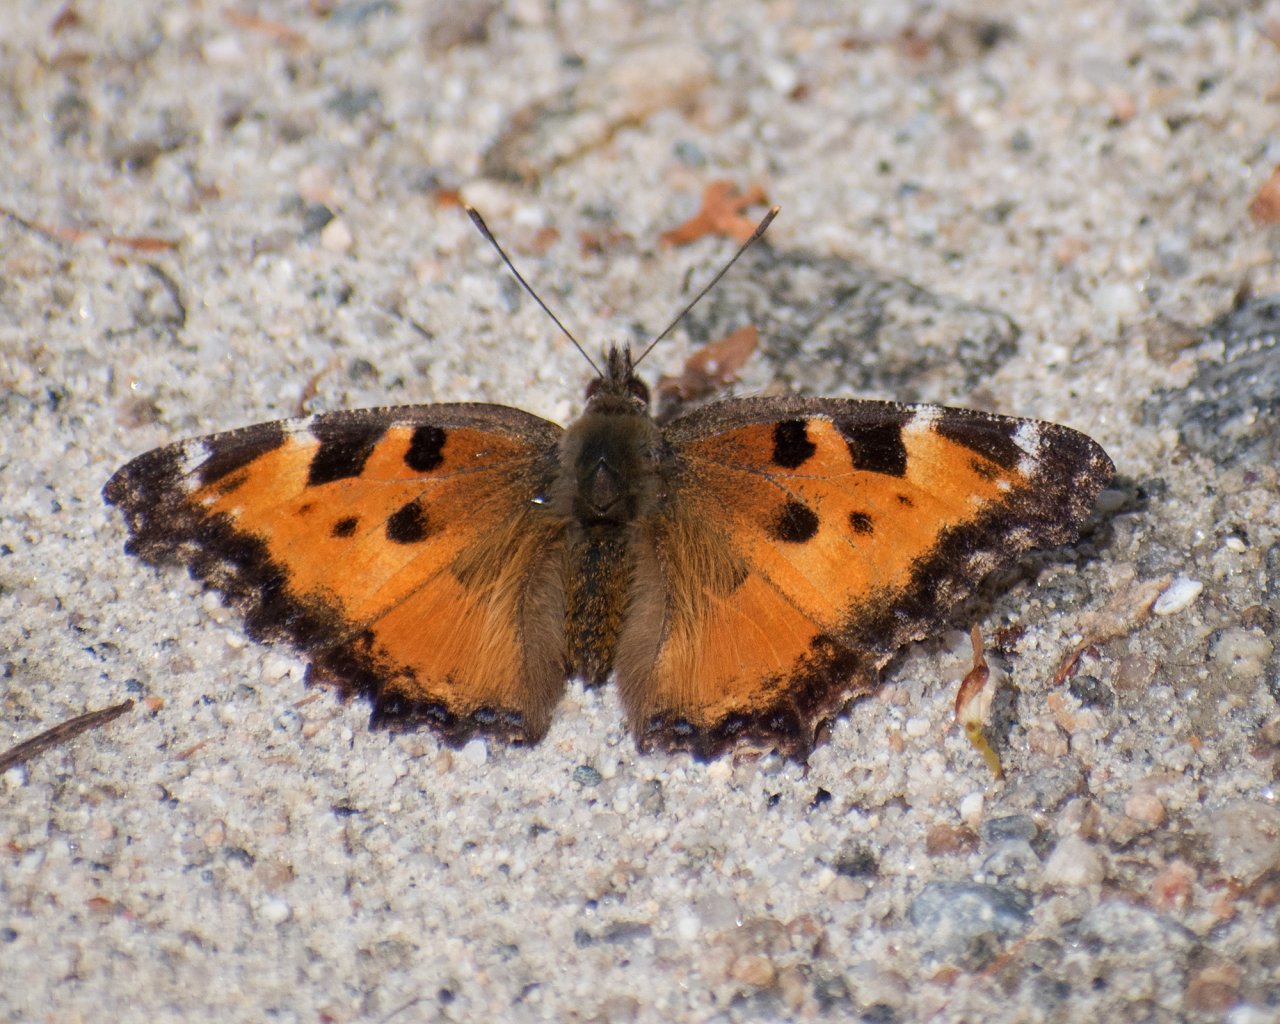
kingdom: Animalia
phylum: Arthropoda
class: Insecta
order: Lepidoptera
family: Nymphalidae
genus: Nymphalis
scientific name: Nymphalis californica
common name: California Tortoiseshell
